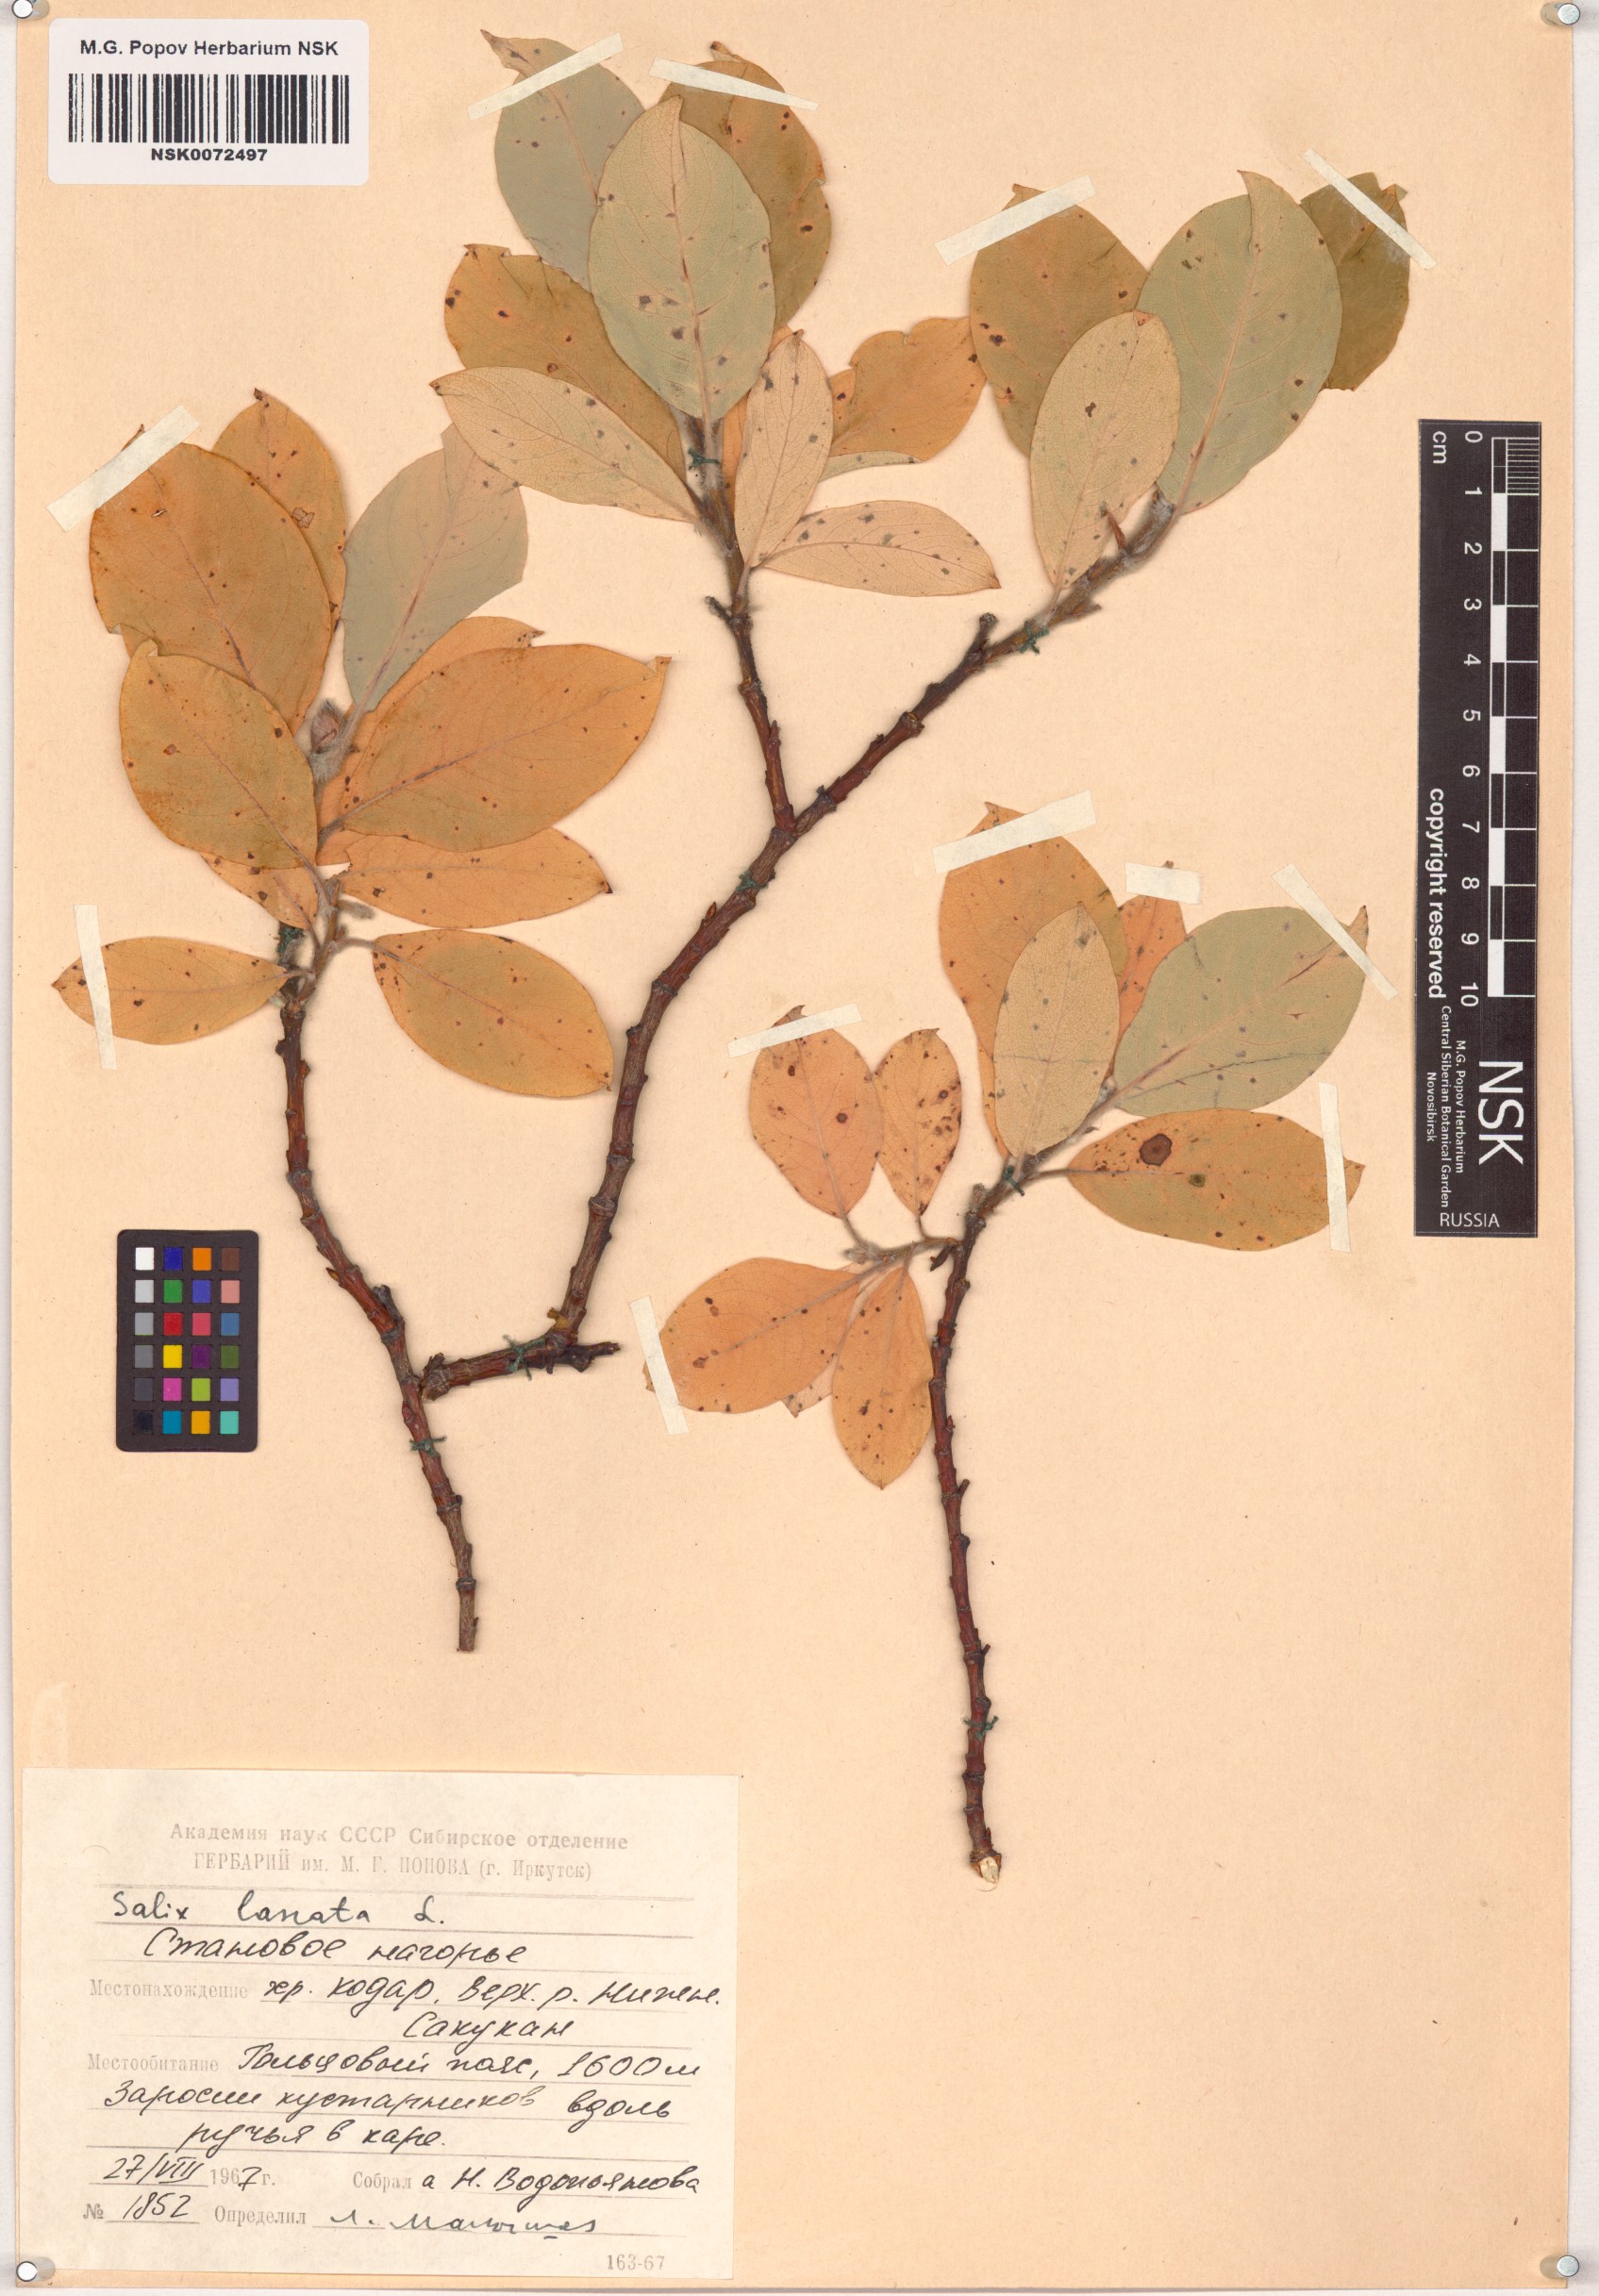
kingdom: Plantae
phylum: Tracheophyta
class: Magnoliopsida
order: Malpighiales
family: Salicaceae
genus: Salix
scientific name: Salix lanata
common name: Woolly willow
